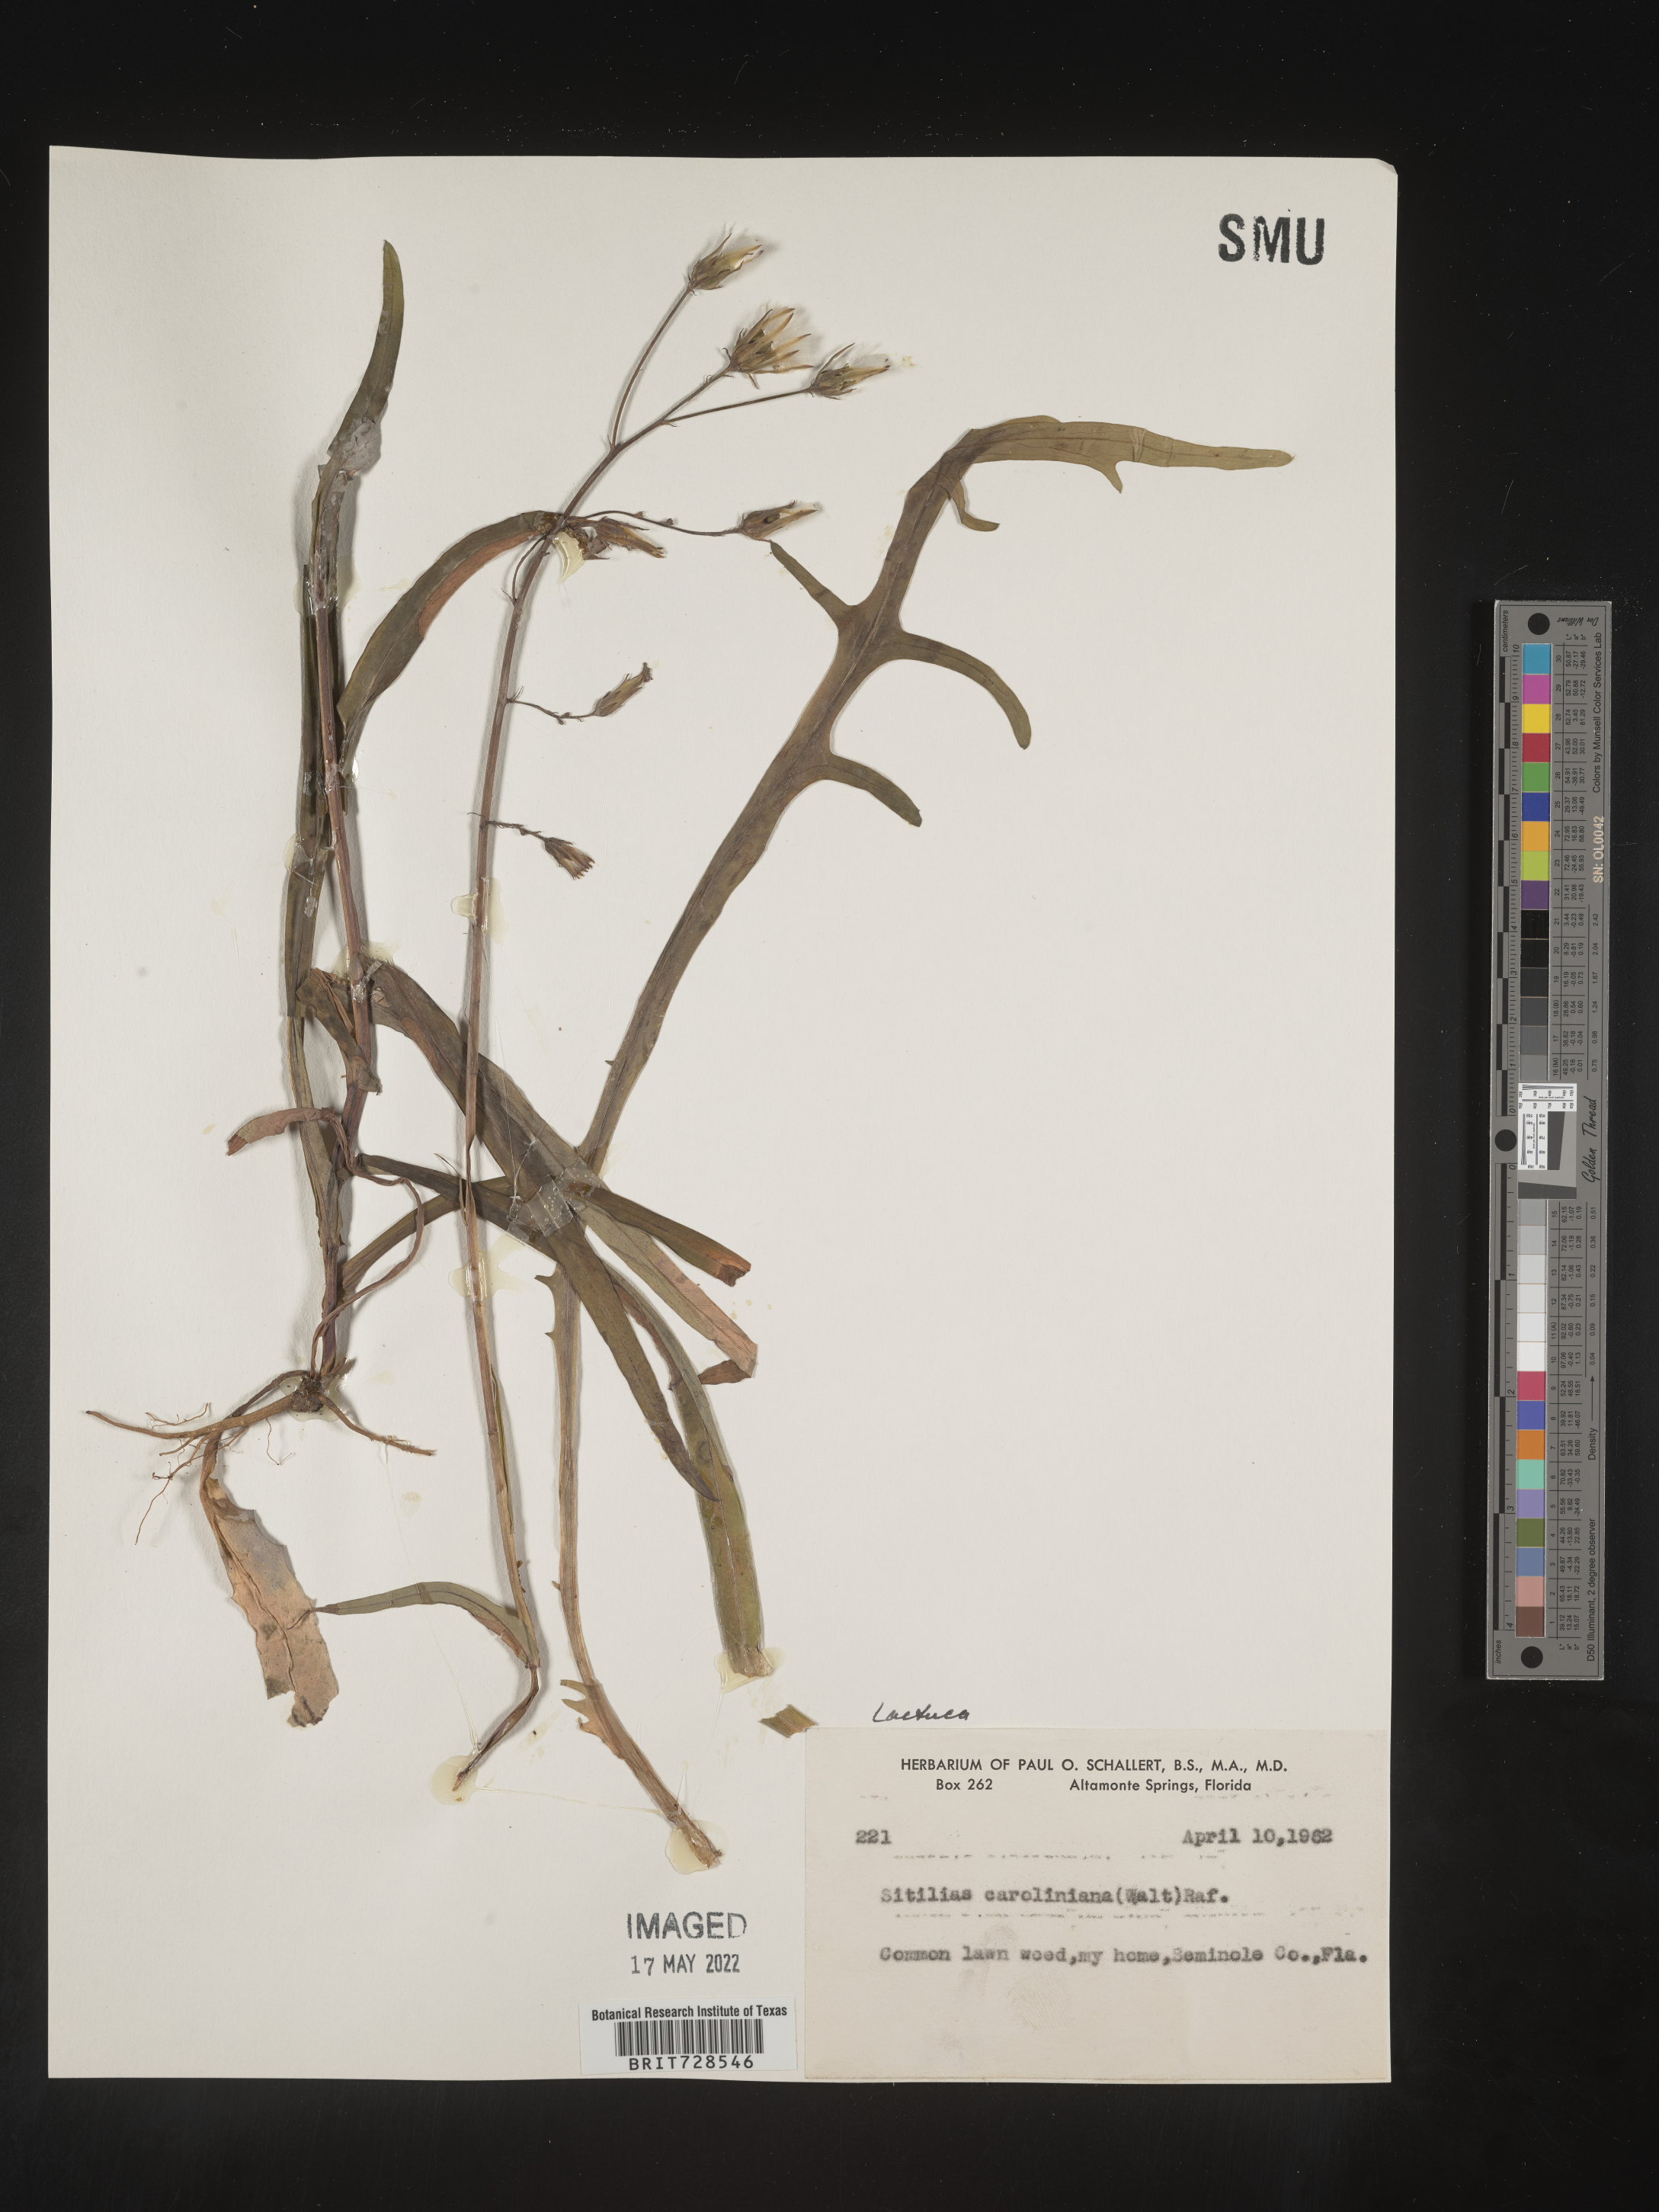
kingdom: Plantae
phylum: Tracheophyta
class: Magnoliopsida
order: Asterales
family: Asteraceae
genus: Lactuca
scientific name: Lactuca
